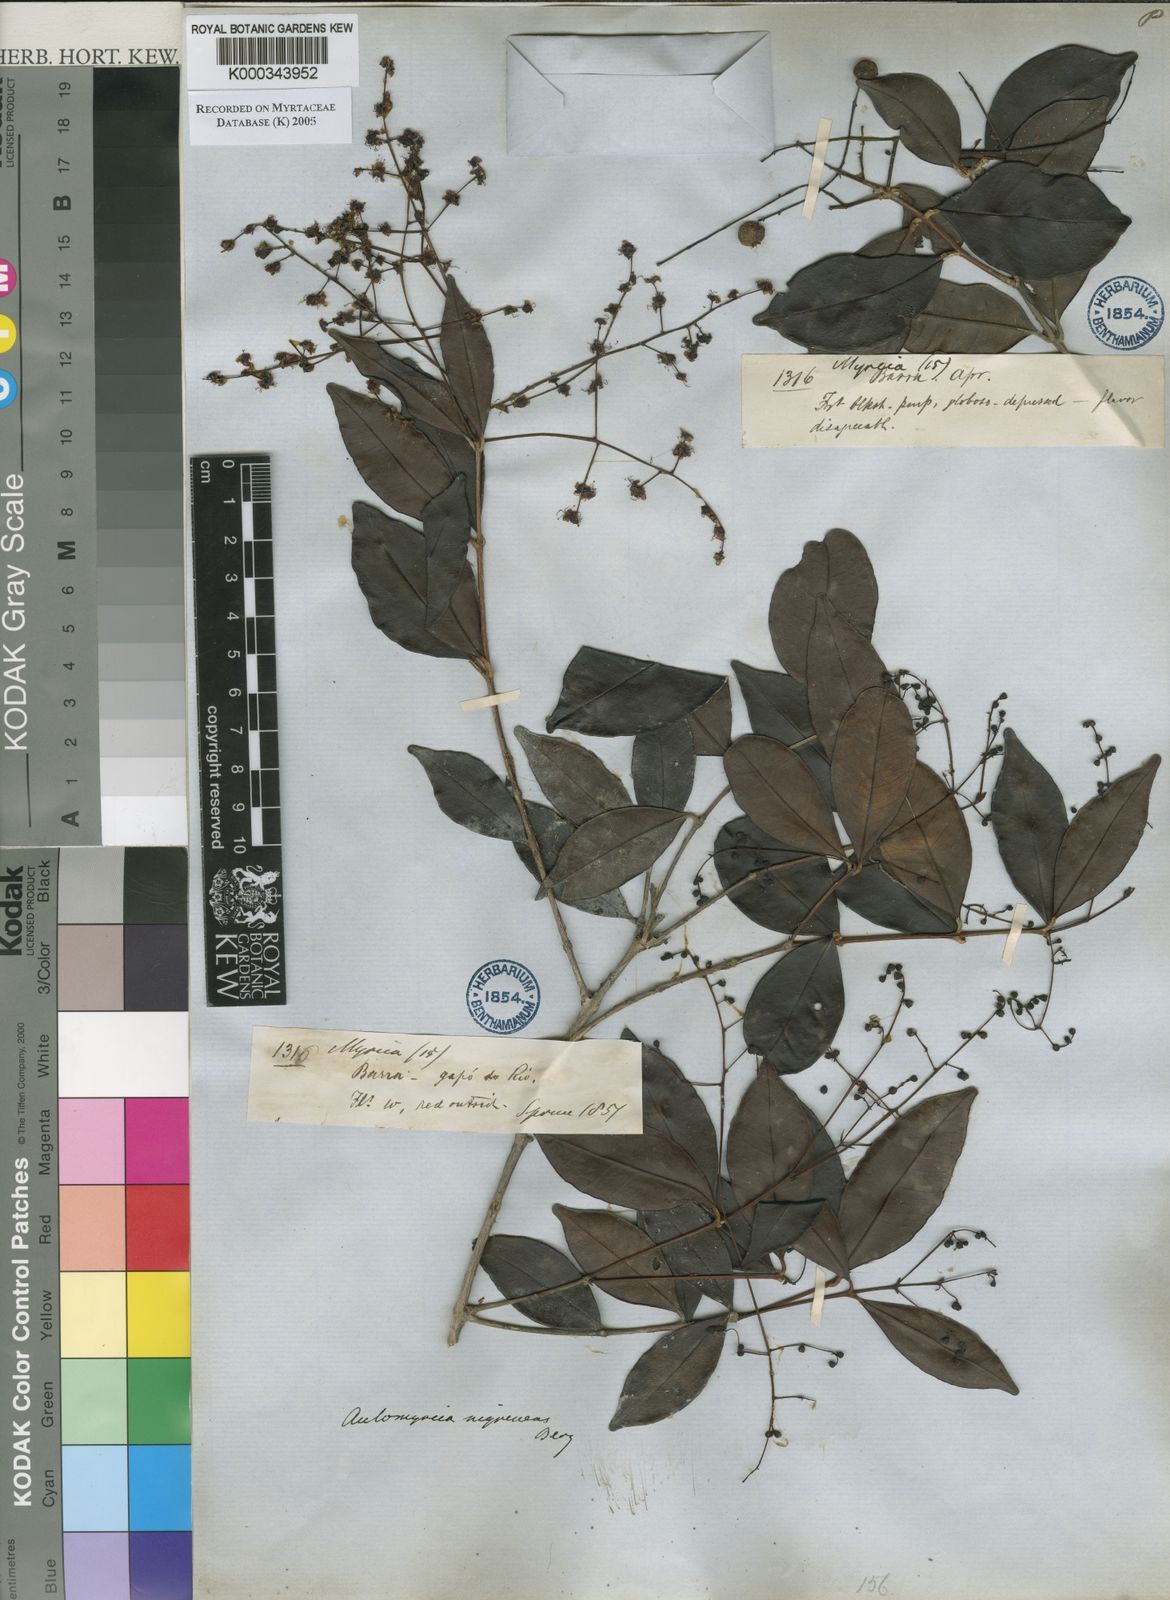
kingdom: Plantae
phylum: Tracheophyta
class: Magnoliopsida
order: Myrtales
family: Myrtaceae
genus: Myrcia
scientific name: Myrcia umbraticola
